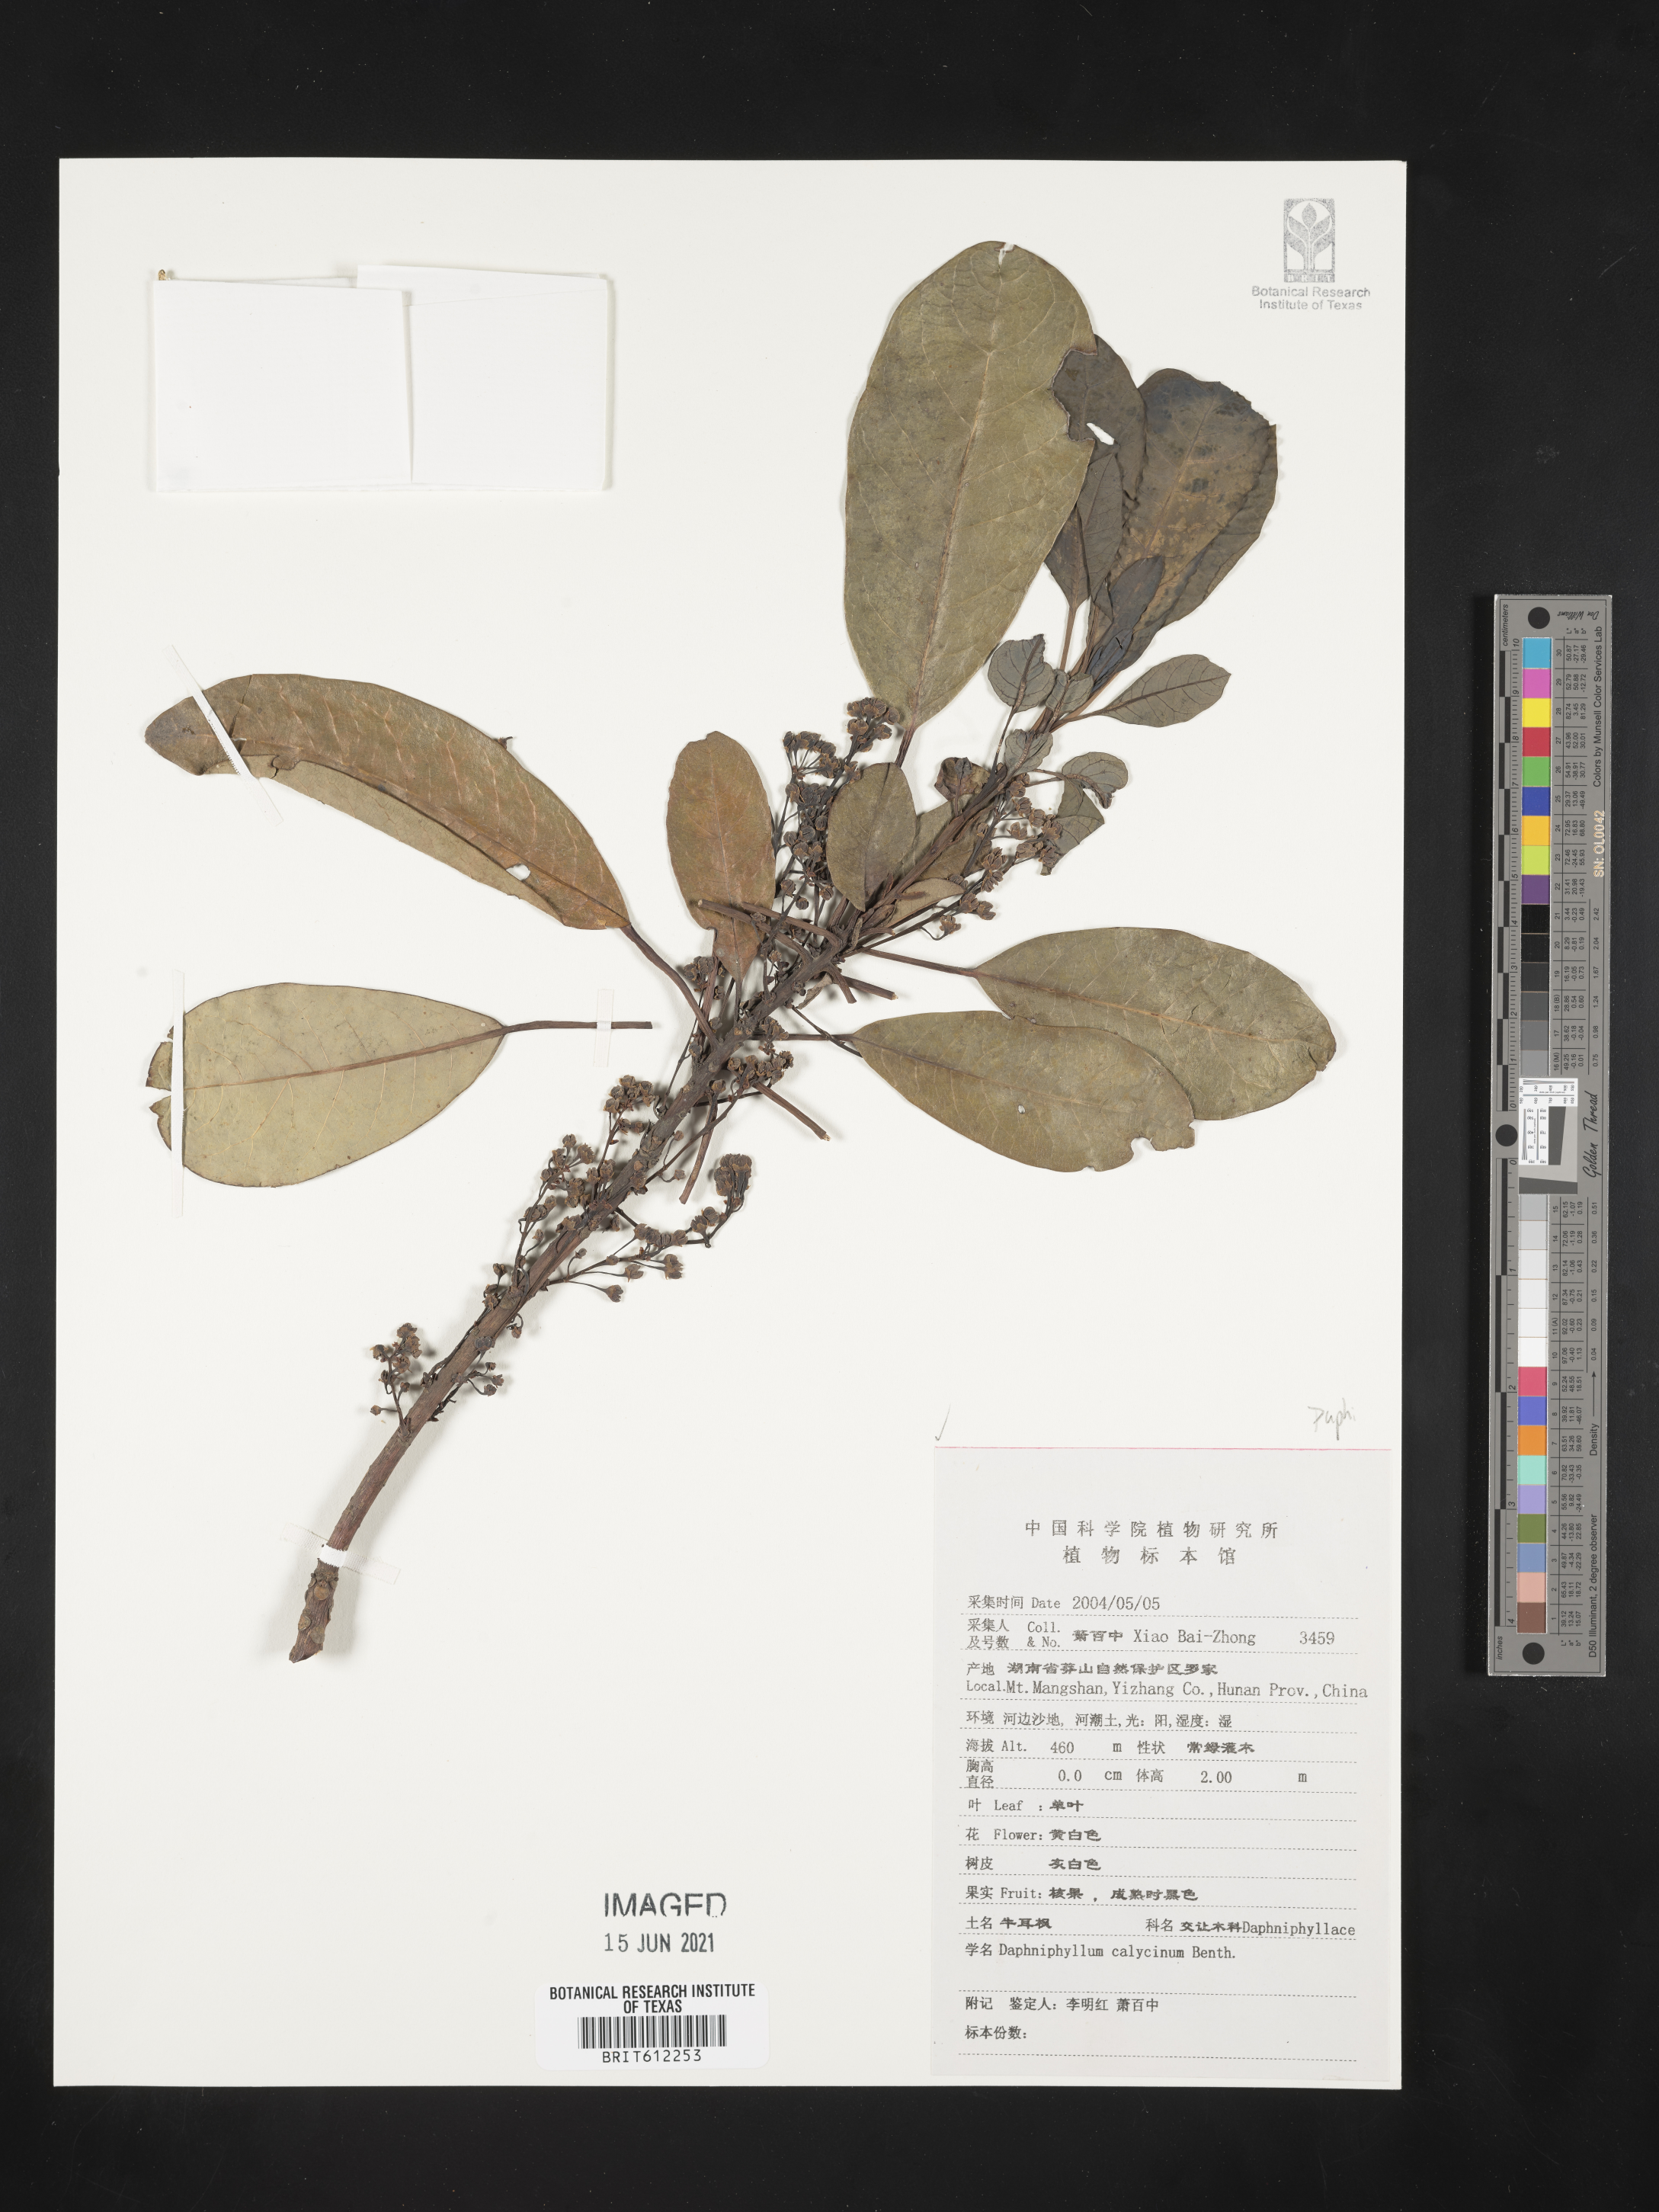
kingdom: Plantae
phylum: Tracheophyta
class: Magnoliopsida
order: Saxifragales
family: Daphniphyllaceae
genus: Daphniphyllum
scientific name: Daphniphyllum calycinum
